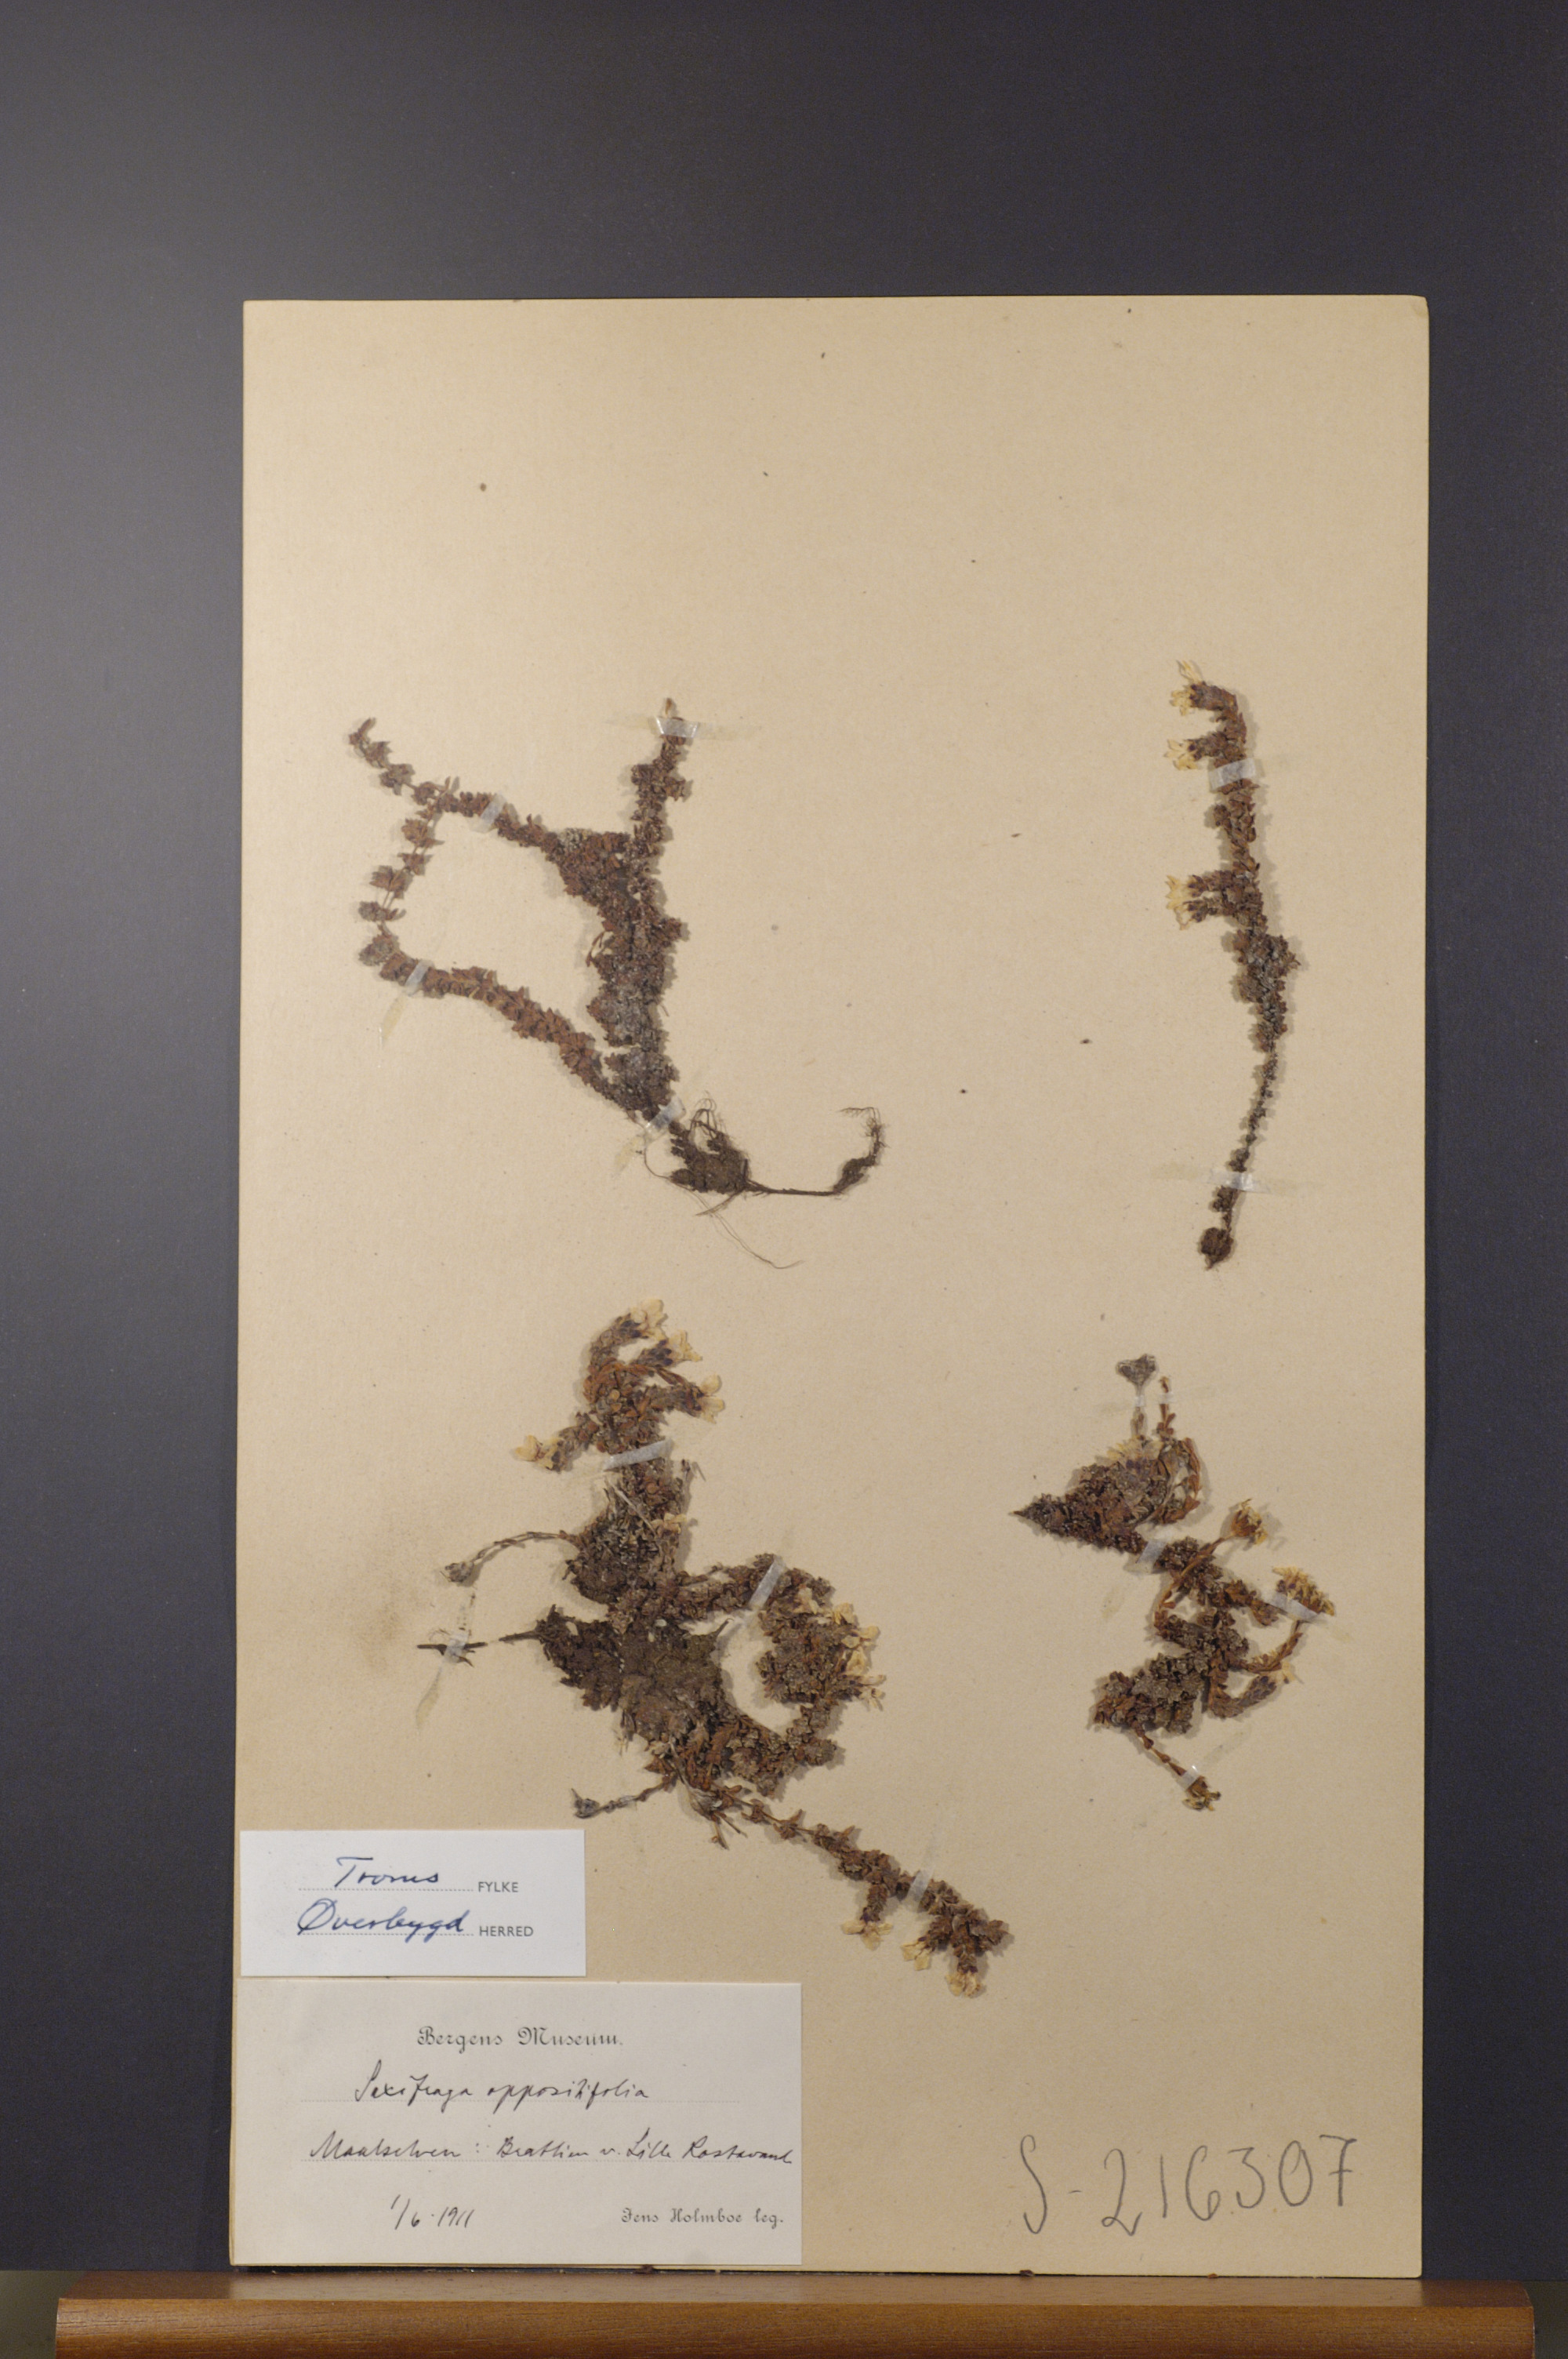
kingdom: Plantae
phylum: Tracheophyta
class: Magnoliopsida
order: Saxifragales
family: Saxifragaceae
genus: Saxifraga
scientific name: Saxifraga oppositifolia
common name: Purple saxifrage
